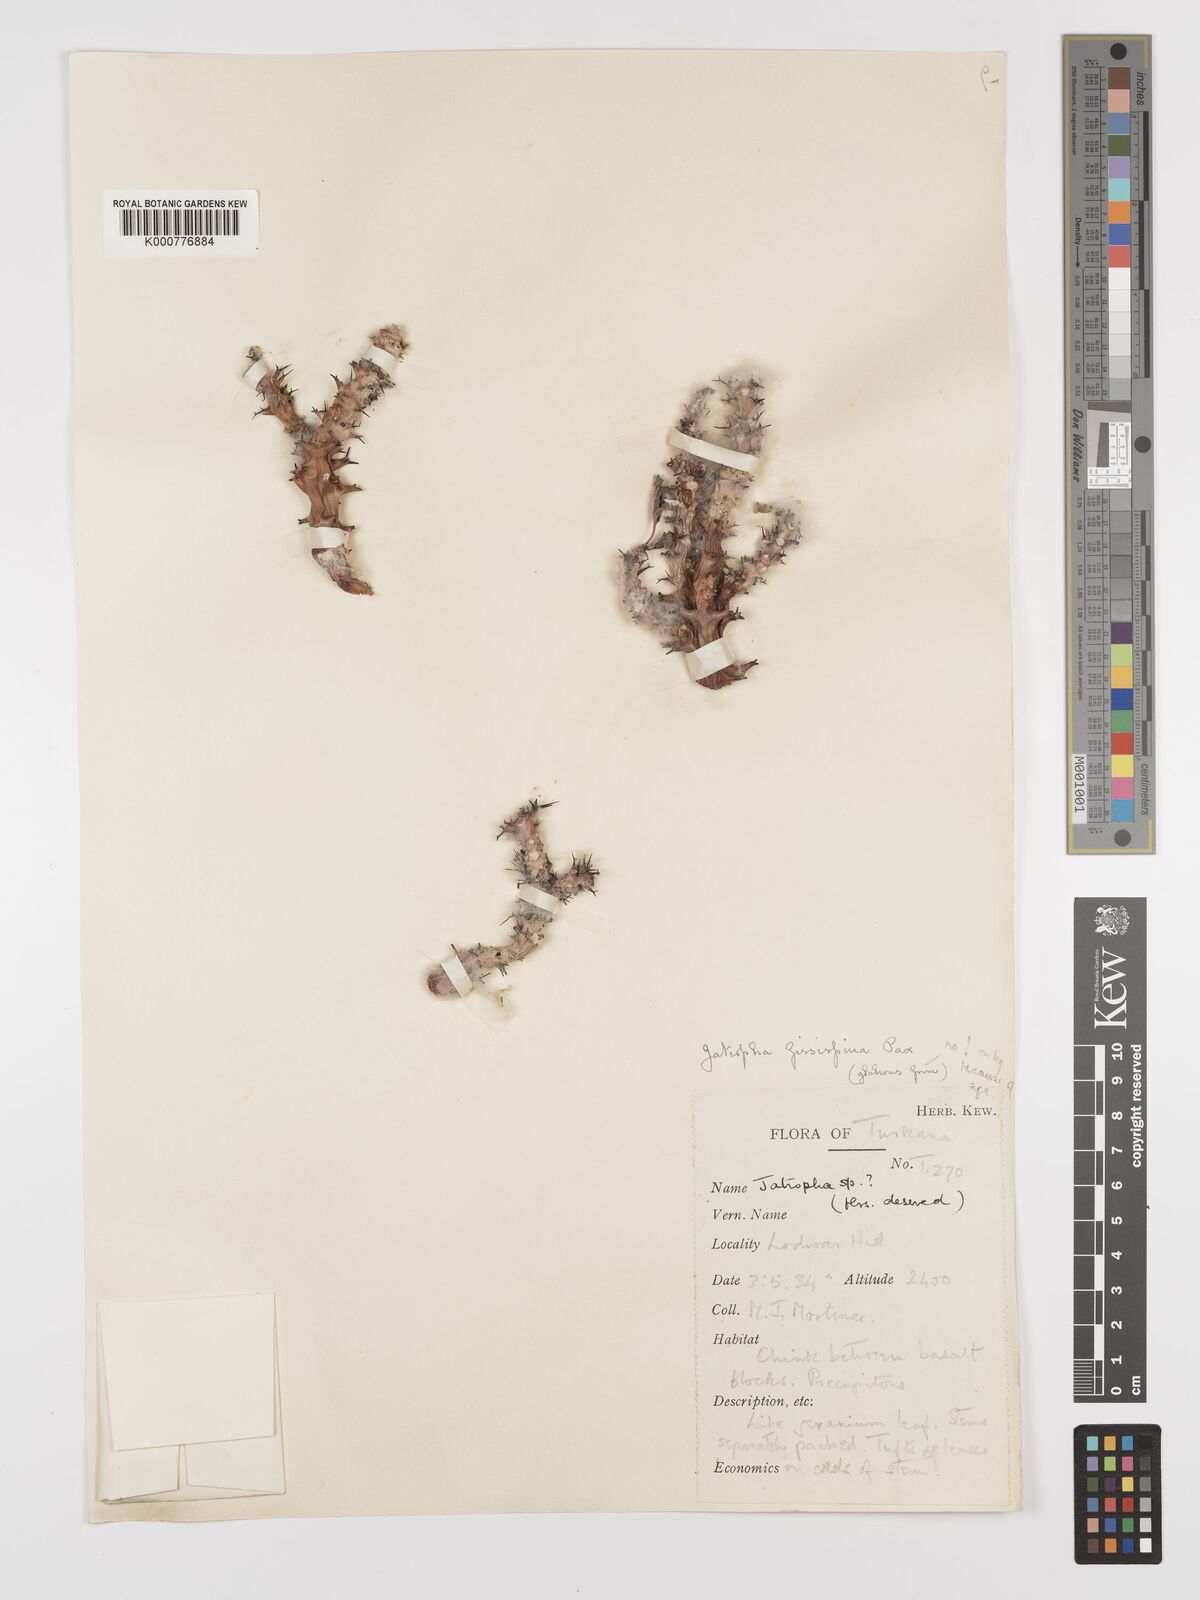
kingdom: Plantae
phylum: Tracheophyta
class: Magnoliopsida
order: Malpighiales
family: Euphorbiaceae
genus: Jatropha
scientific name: Jatropha ellenbeckii
